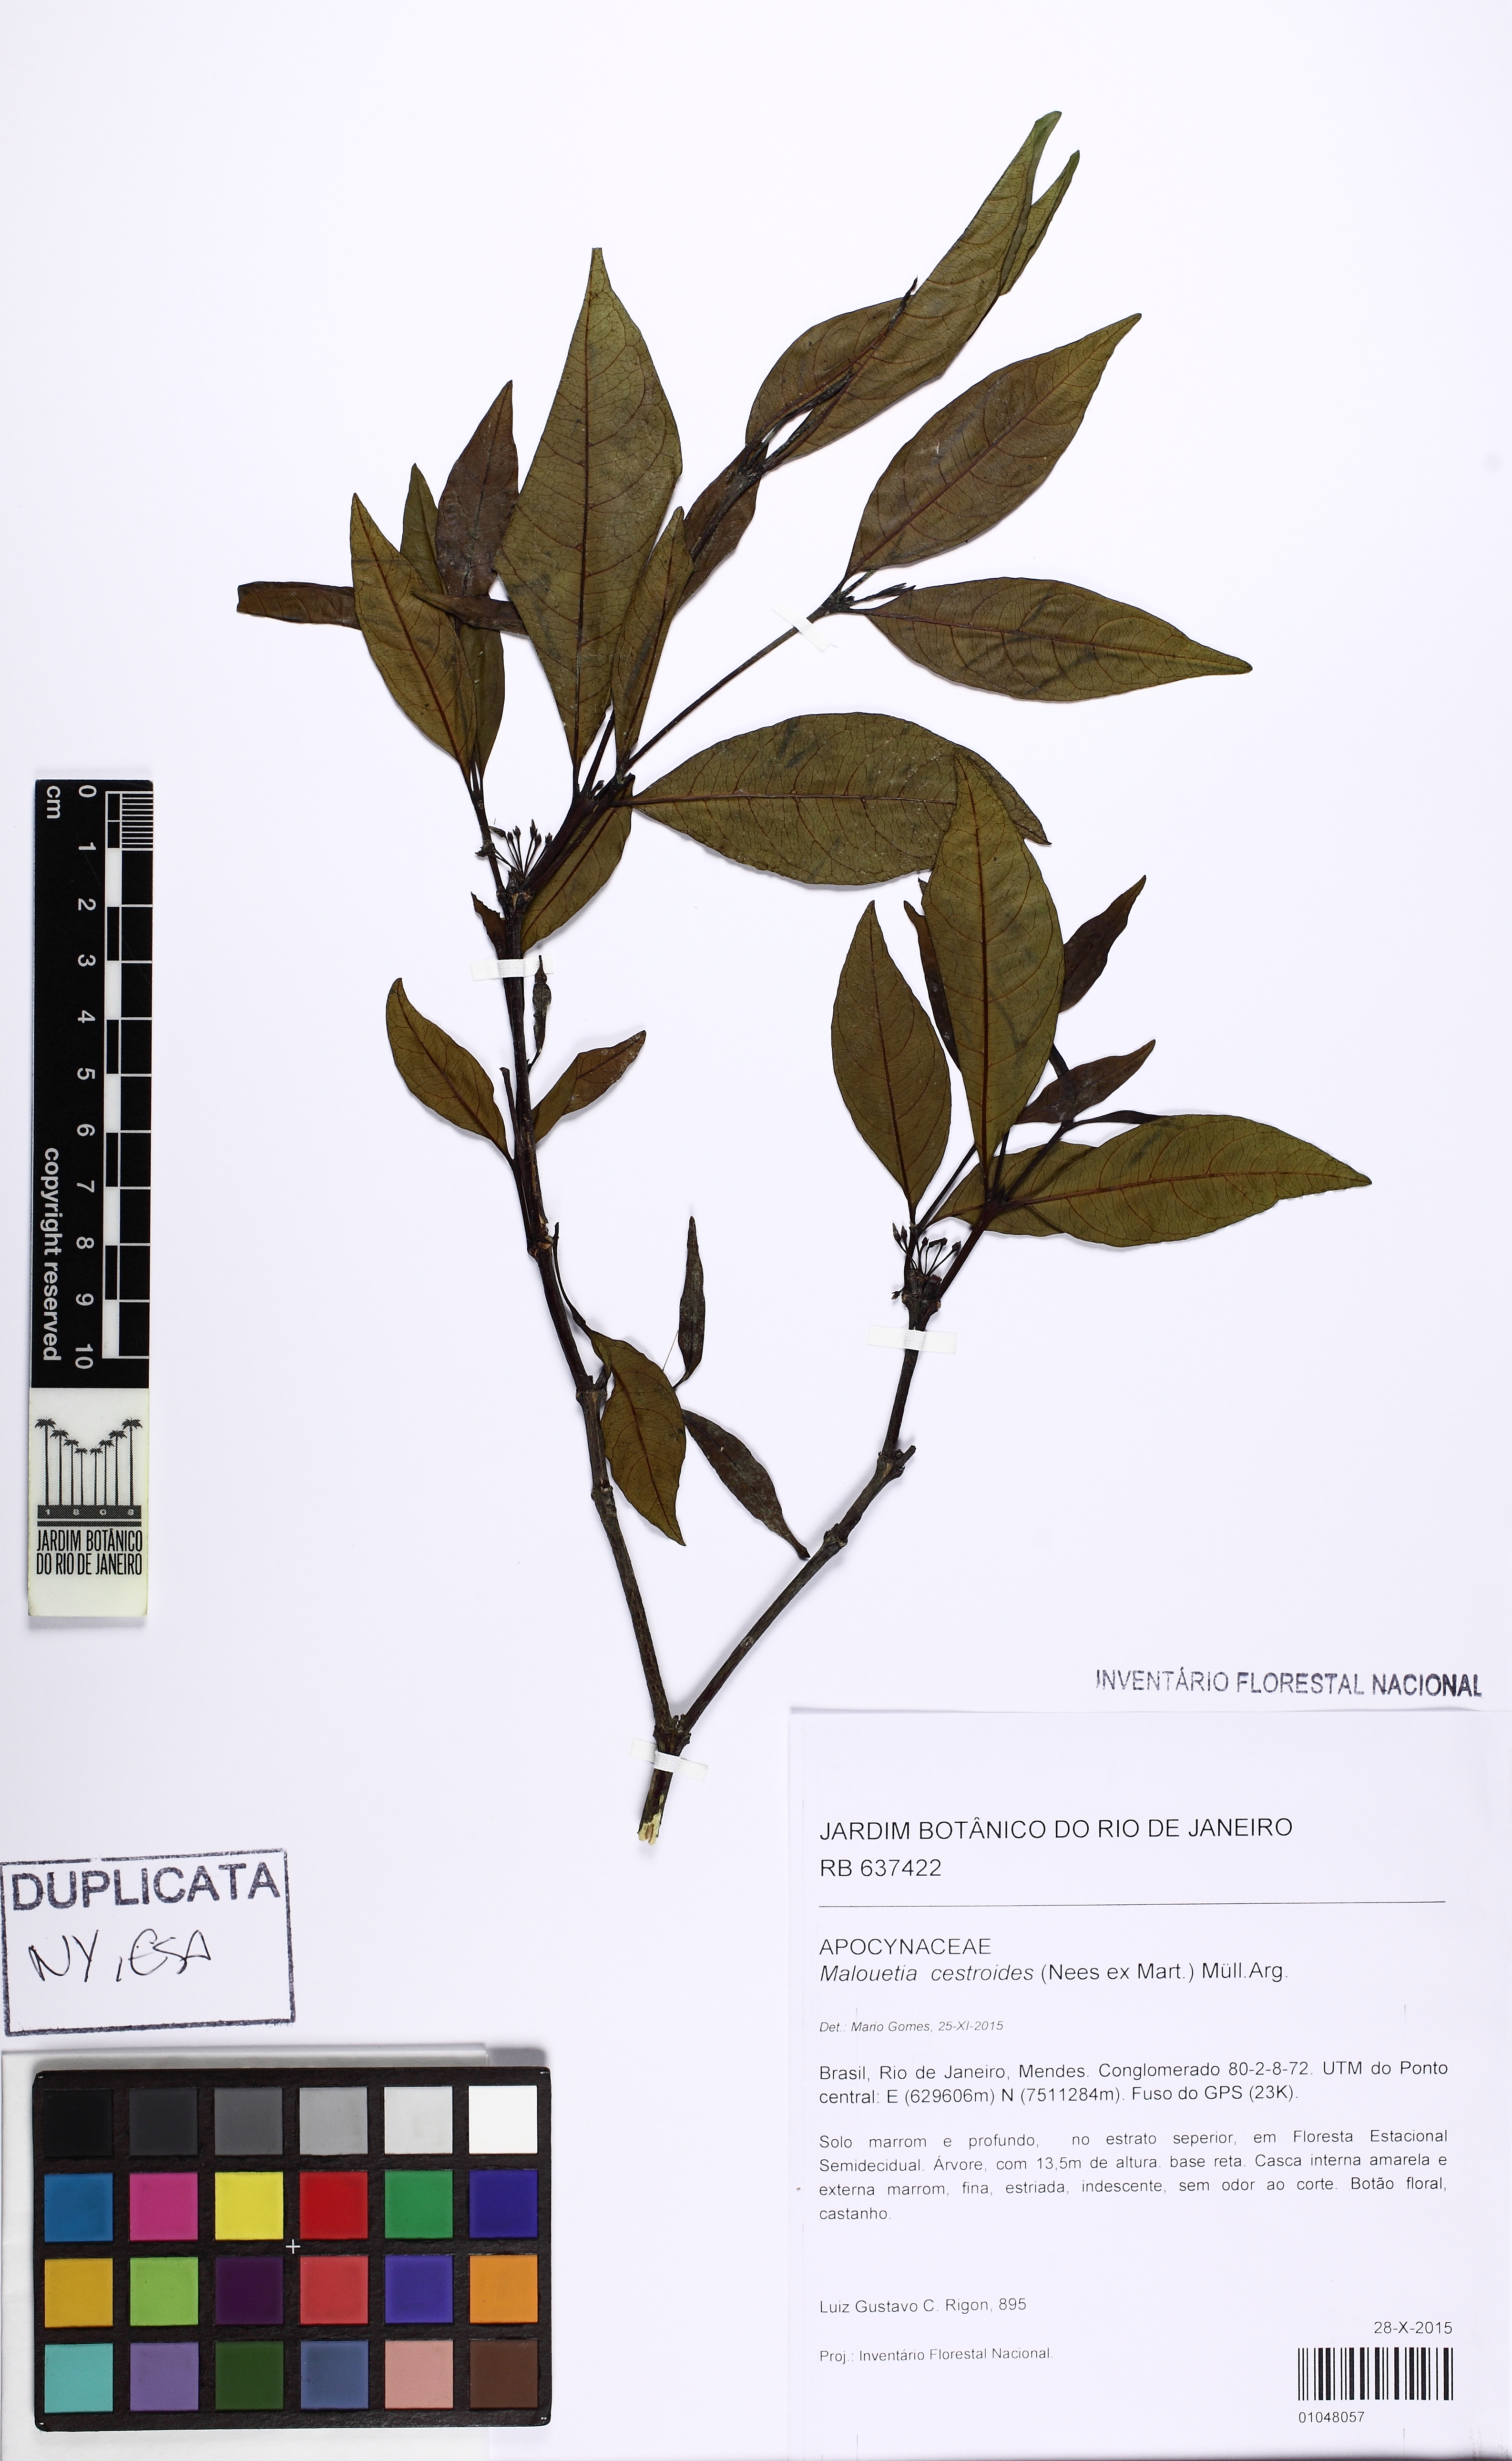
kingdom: Plantae
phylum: Tracheophyta
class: Magnoliopsida
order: Gentianales
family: Apocynaceae
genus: Malouetia
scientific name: Malouetia cestroides
